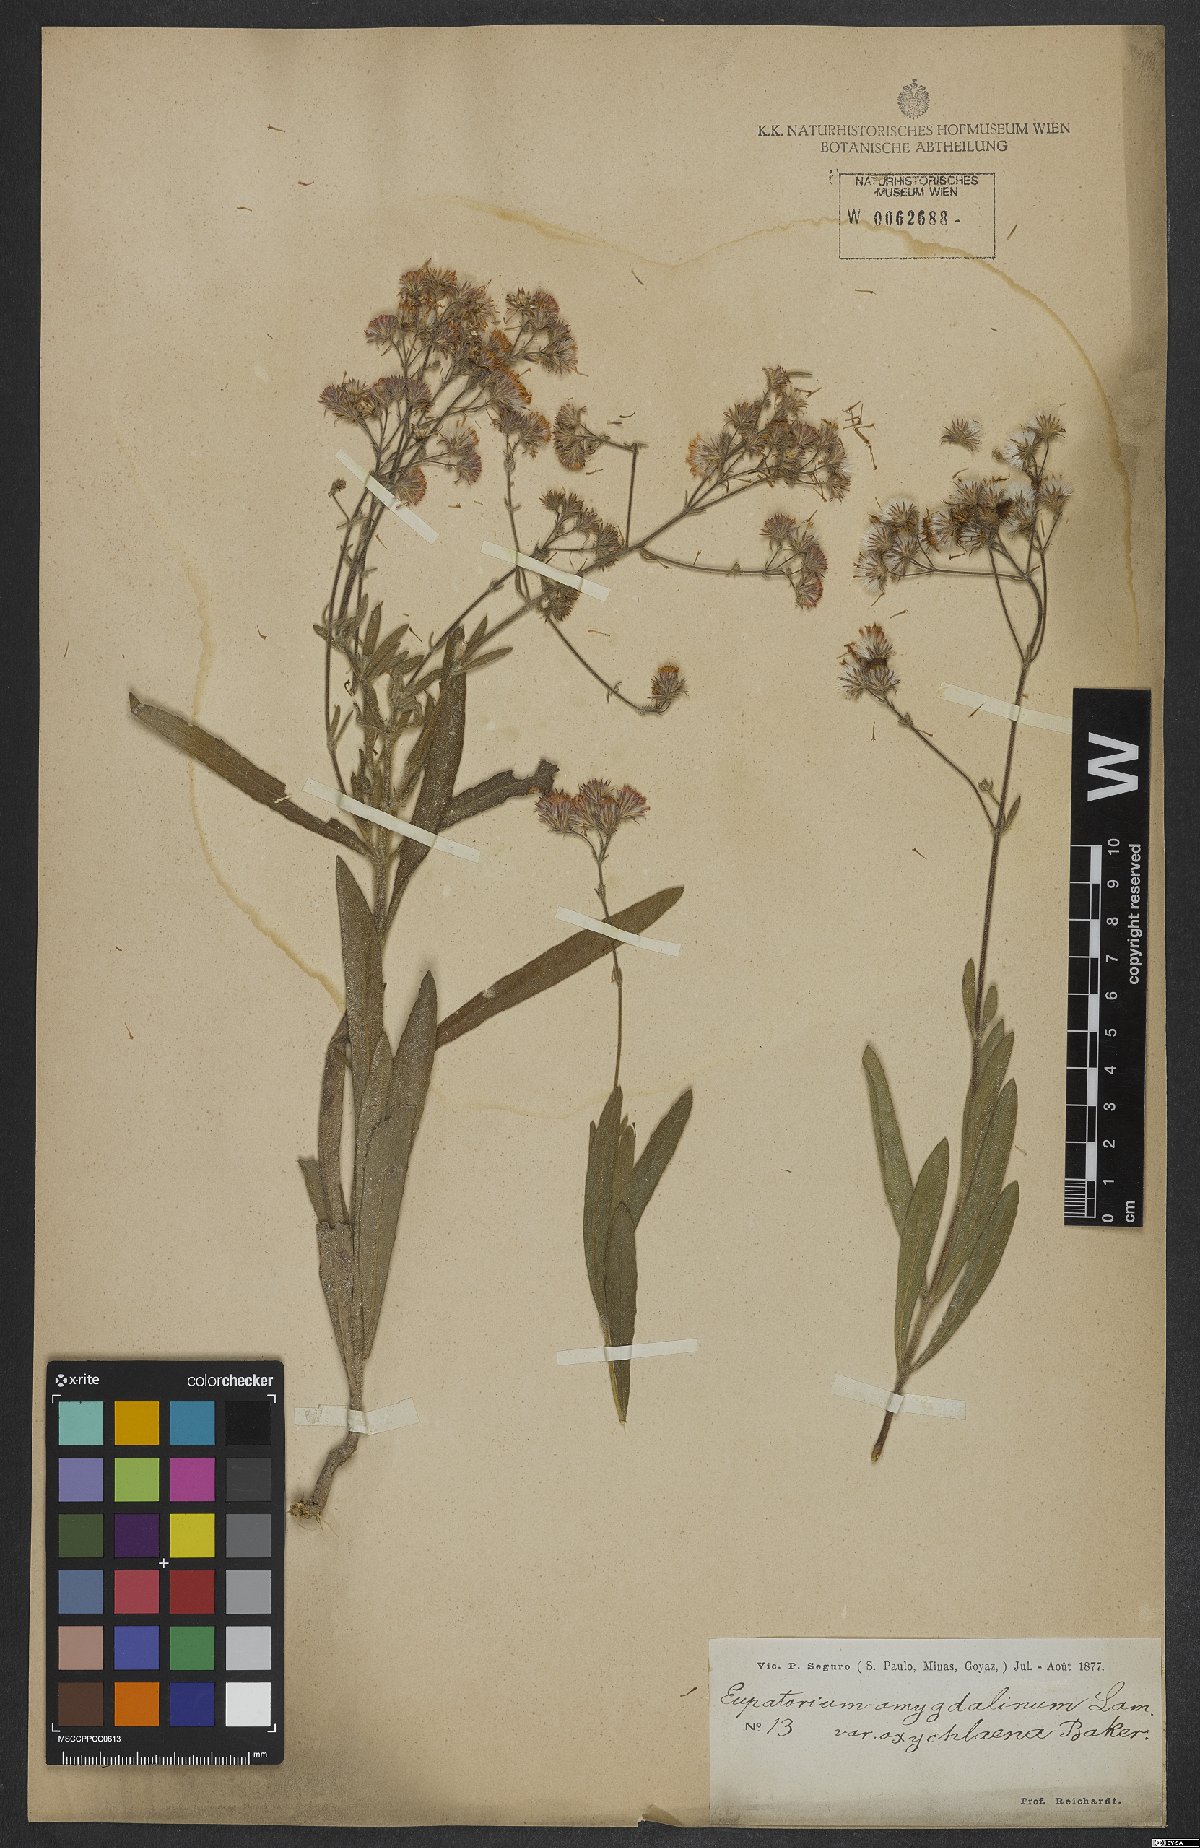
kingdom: Plantae
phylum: Tracheophyta
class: Magnoliopsida
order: Asterales
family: Asteraceae
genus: Ayapana
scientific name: Ayapana amygdalina
